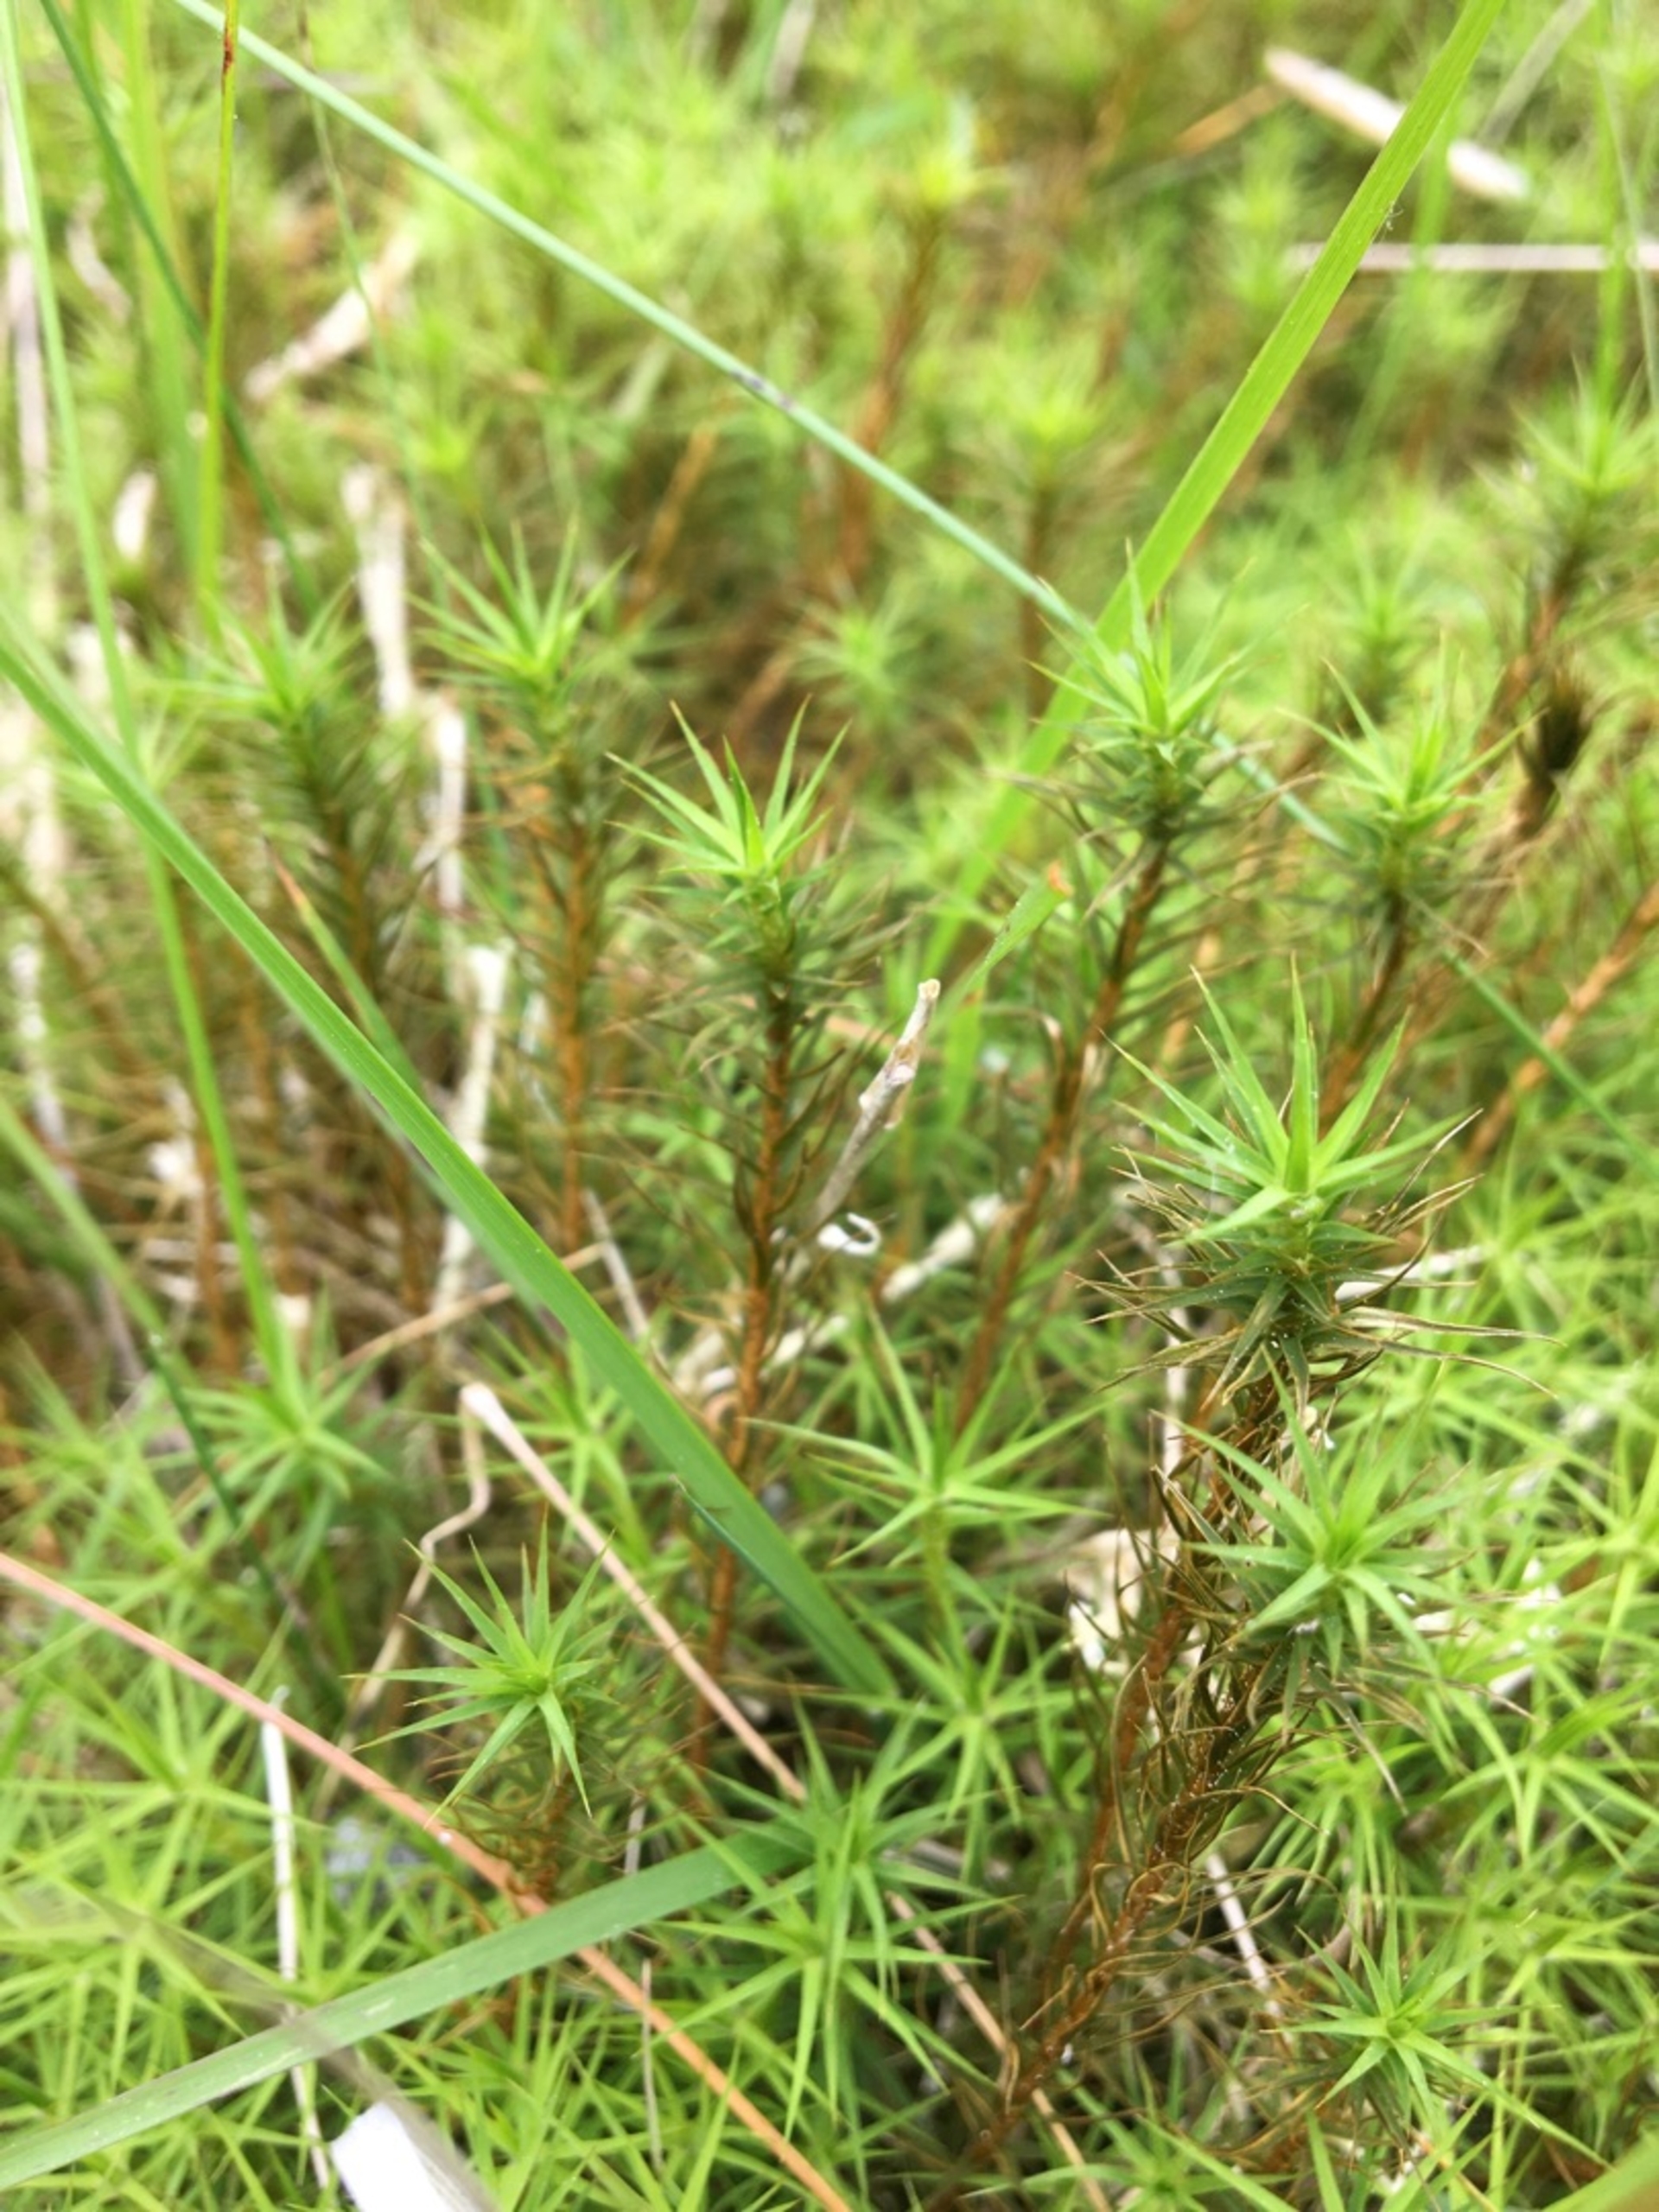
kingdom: Plantae
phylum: Bryophyta
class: Polytrichopsida
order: Polytrichales
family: Polytrichaceae
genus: Polytrichum
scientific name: Polytrichum commune
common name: Almindelig jomfruhår
